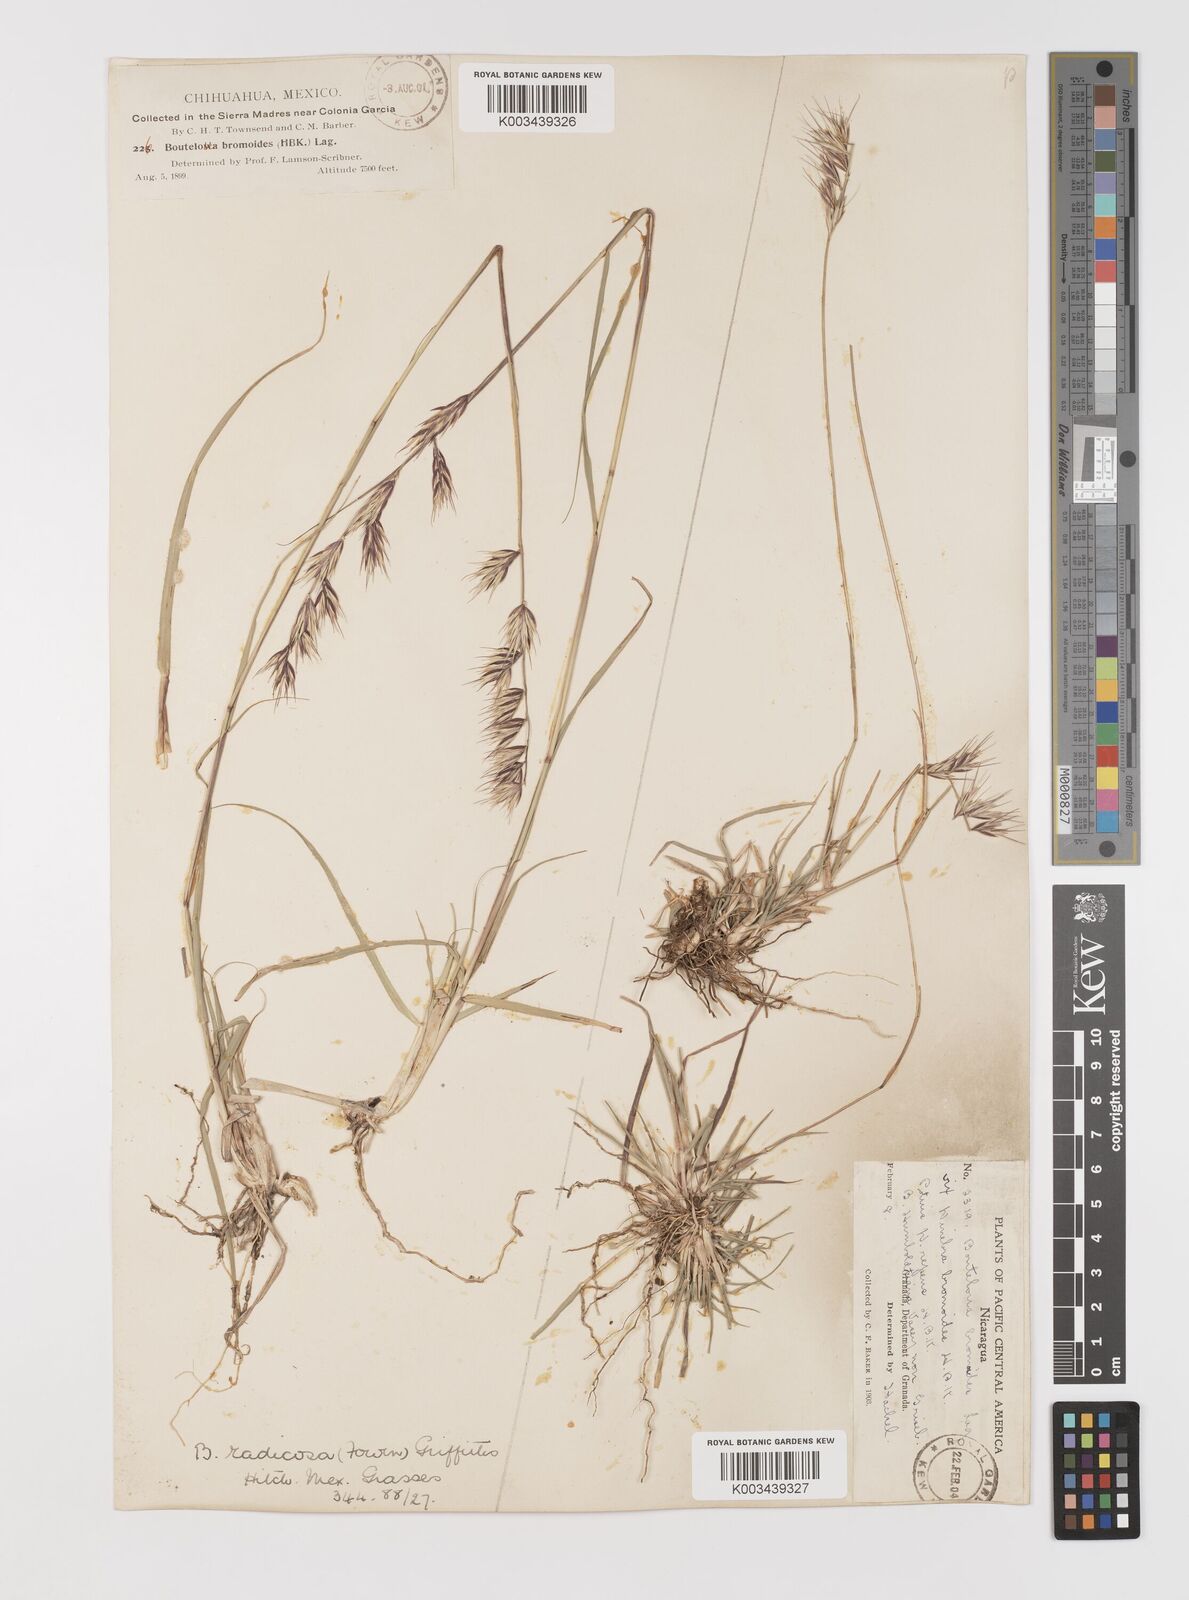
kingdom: Plantae
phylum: Tracheophyta
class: Liliopsida
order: Poales
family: Poaceae
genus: Bouteloua
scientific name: Bouteloua radicosa
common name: Purple grama
